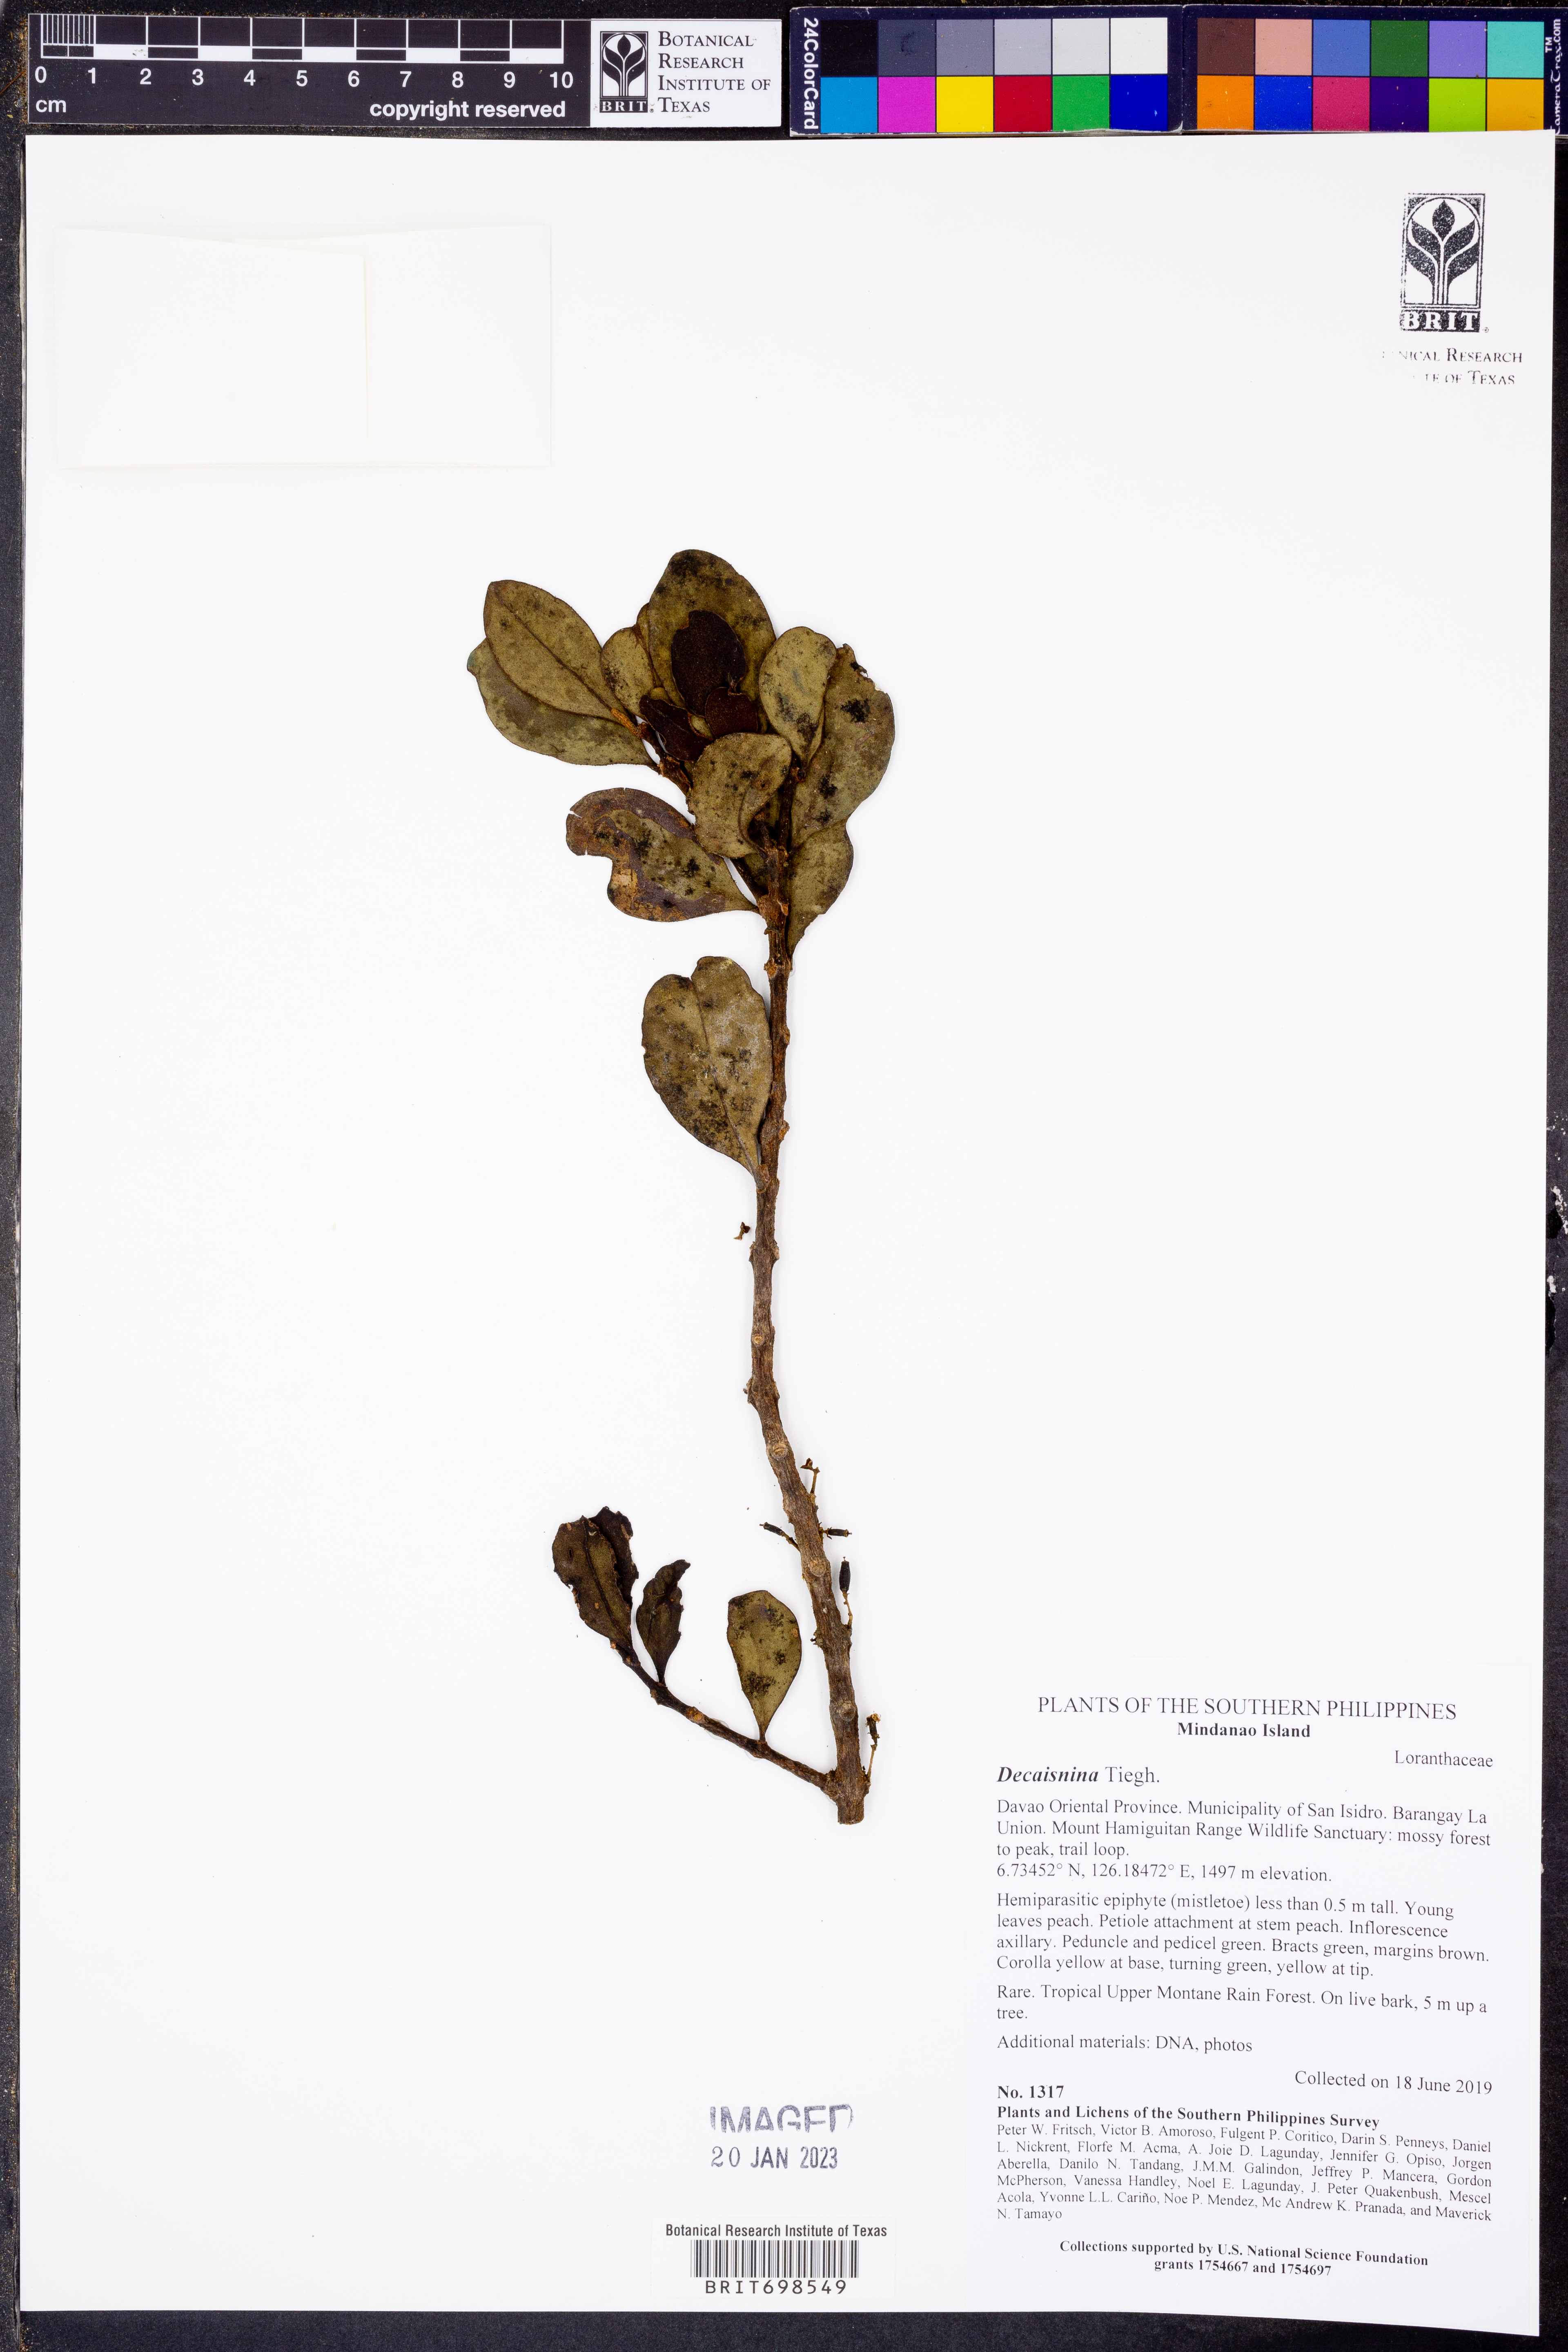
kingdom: Plantae
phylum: Tracheophyta
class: Magnoliopsida
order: Santalales
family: Loranthaceae
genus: Macrosolen
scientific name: Macrosolen
